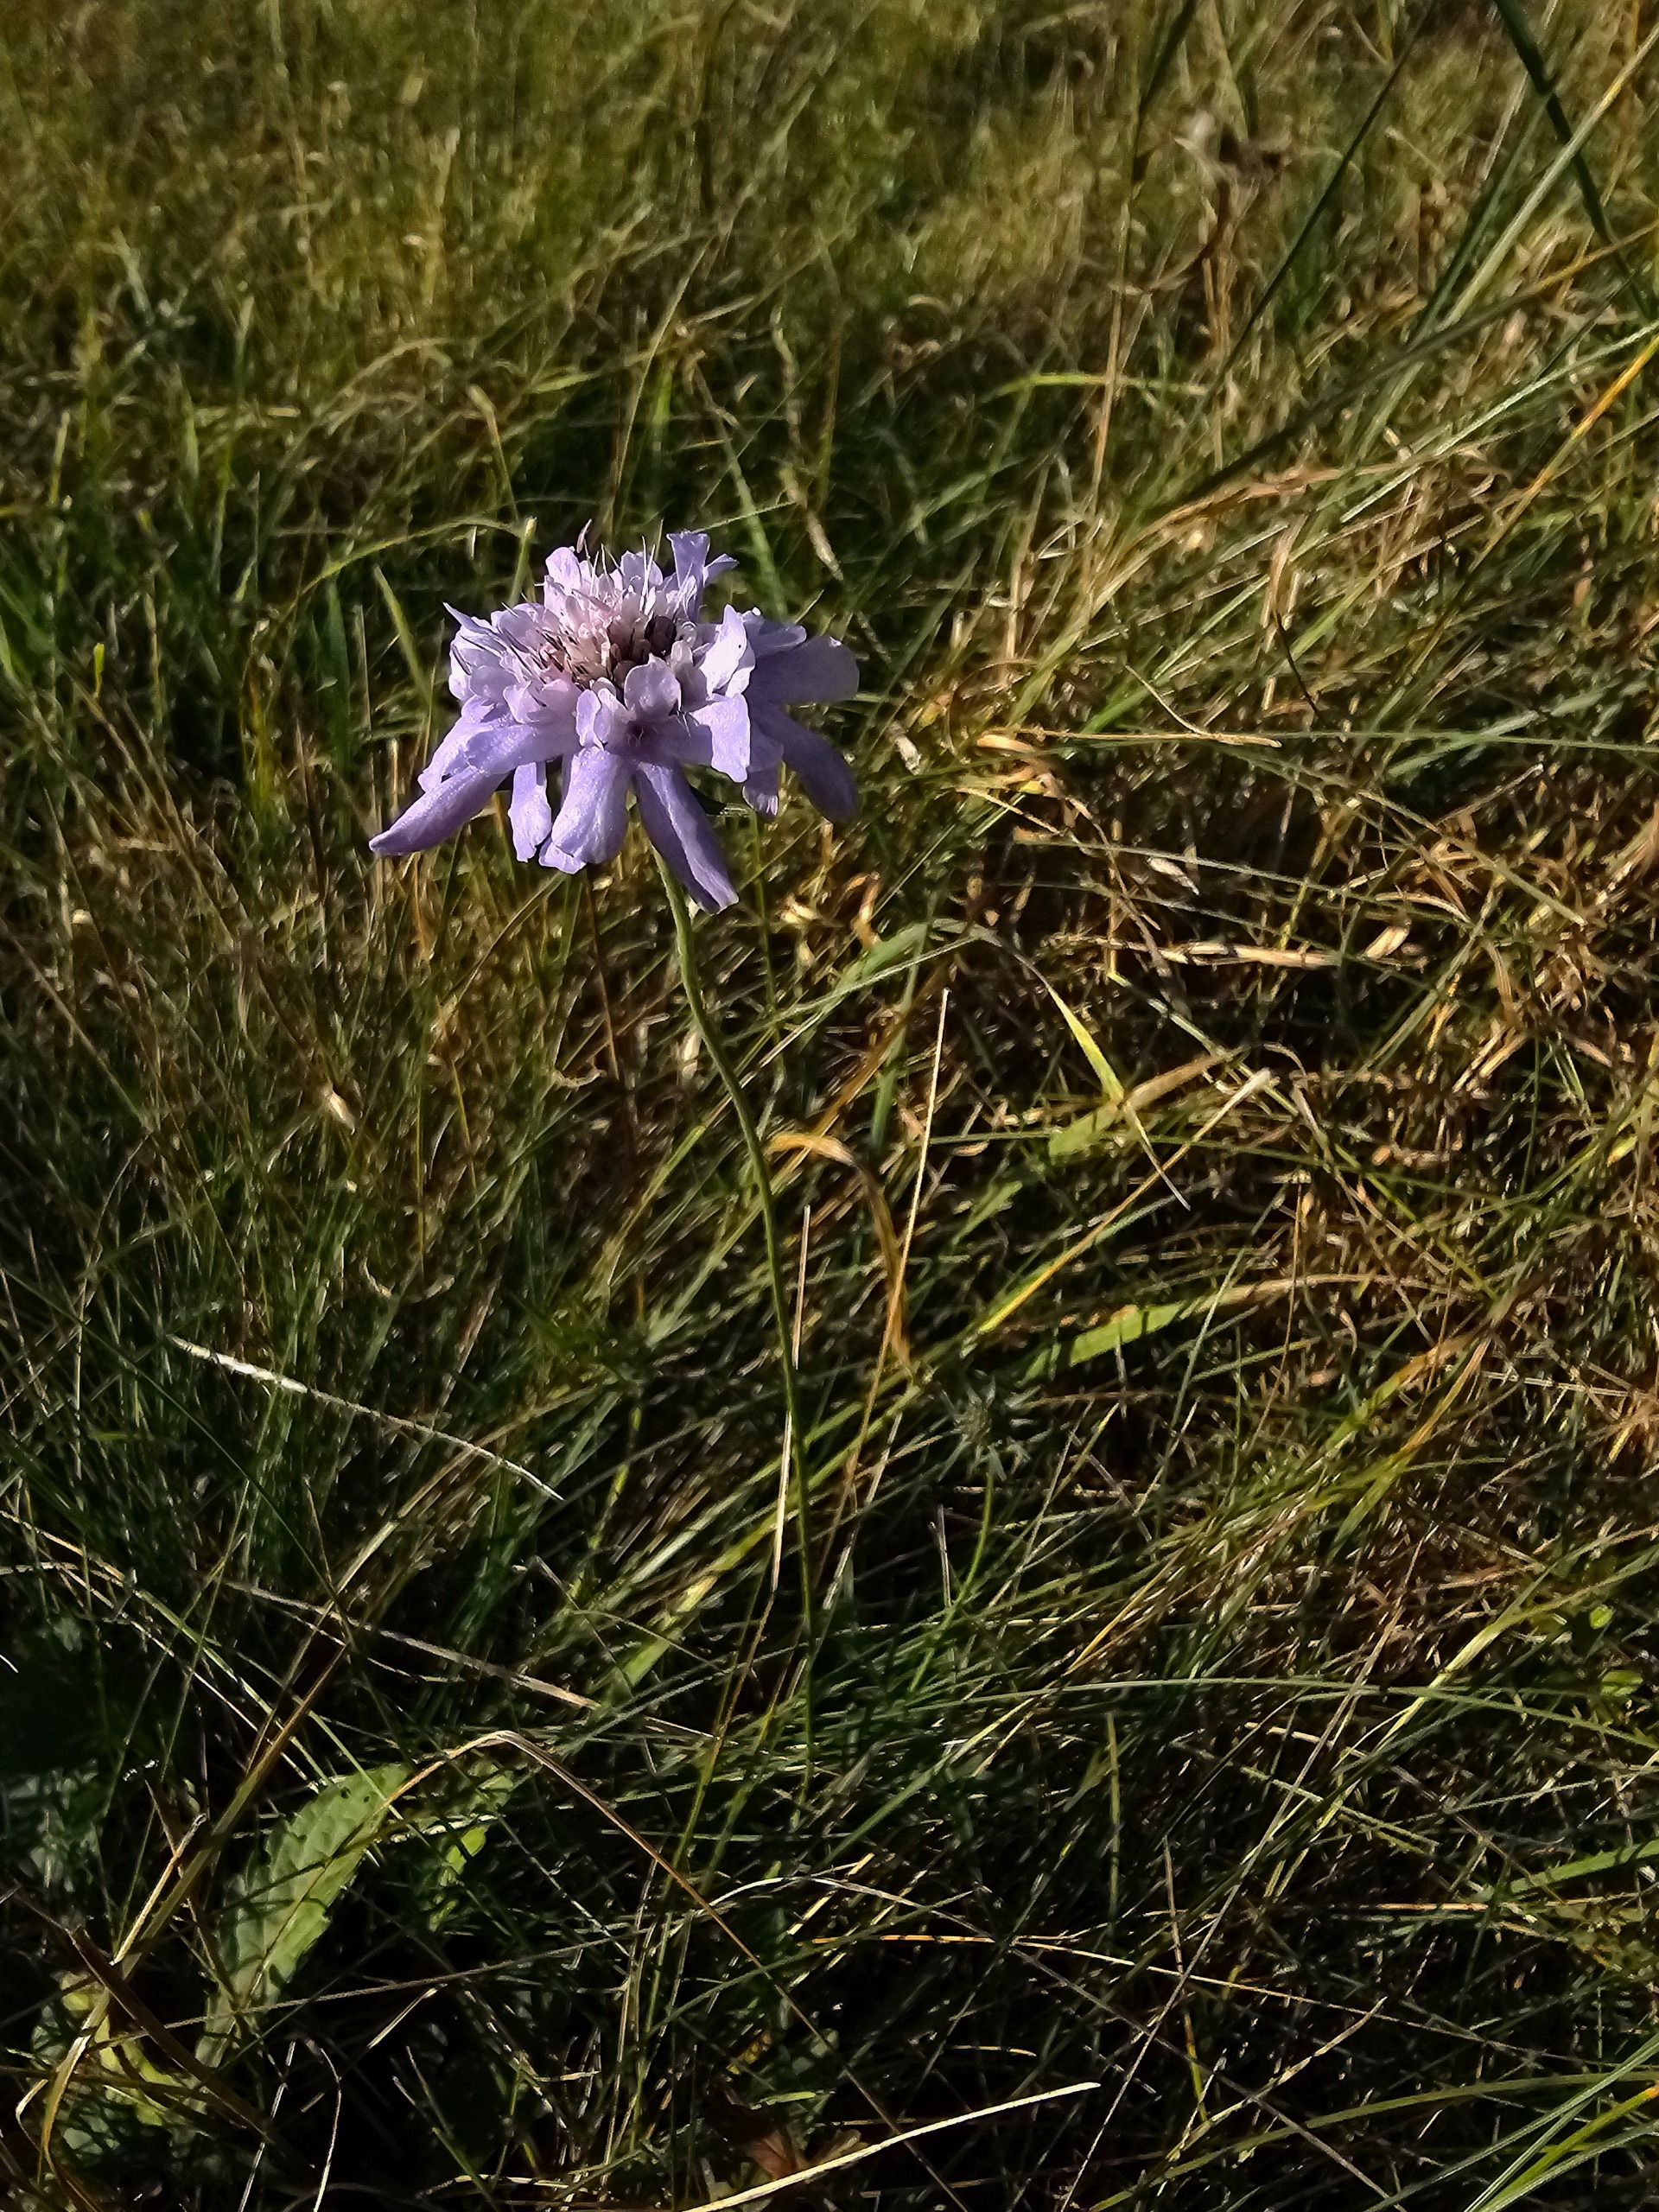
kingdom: Plantae
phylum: Tracheophyta
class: Magnoliopsida
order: Dipsacales
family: Caprifoliaceae
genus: Scabiosa
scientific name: Scabiosa columbaria
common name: Due-skabiose
